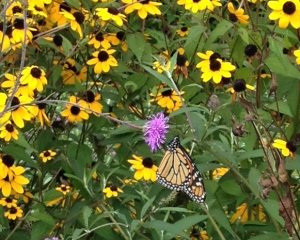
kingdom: Animalia
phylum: Arthropoda
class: Insecta
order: Lepidoptera
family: Nymphalidae
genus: Danaus
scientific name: Danaus plexippus
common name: Monarch
